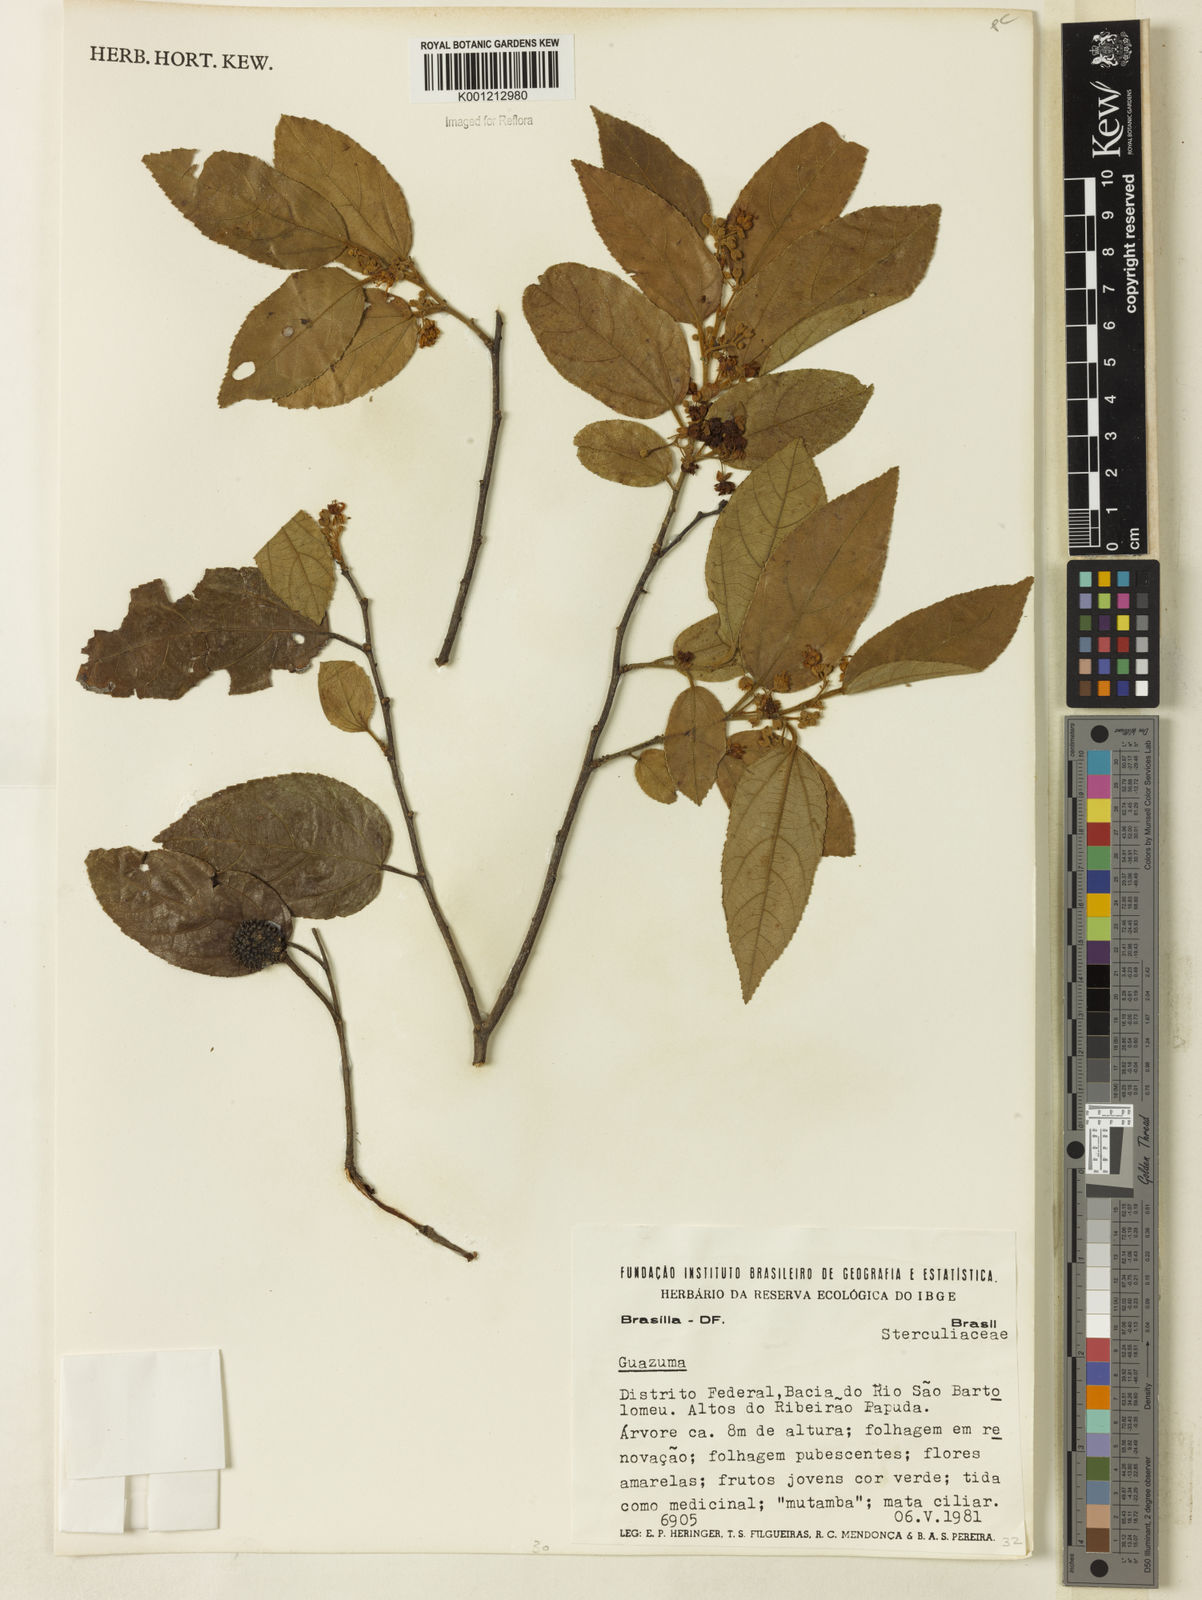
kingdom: Plantae
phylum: Tracheophyta
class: Magnoliopsida
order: Malvales
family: Malvaceae
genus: Guazuma
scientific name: Guazuma
